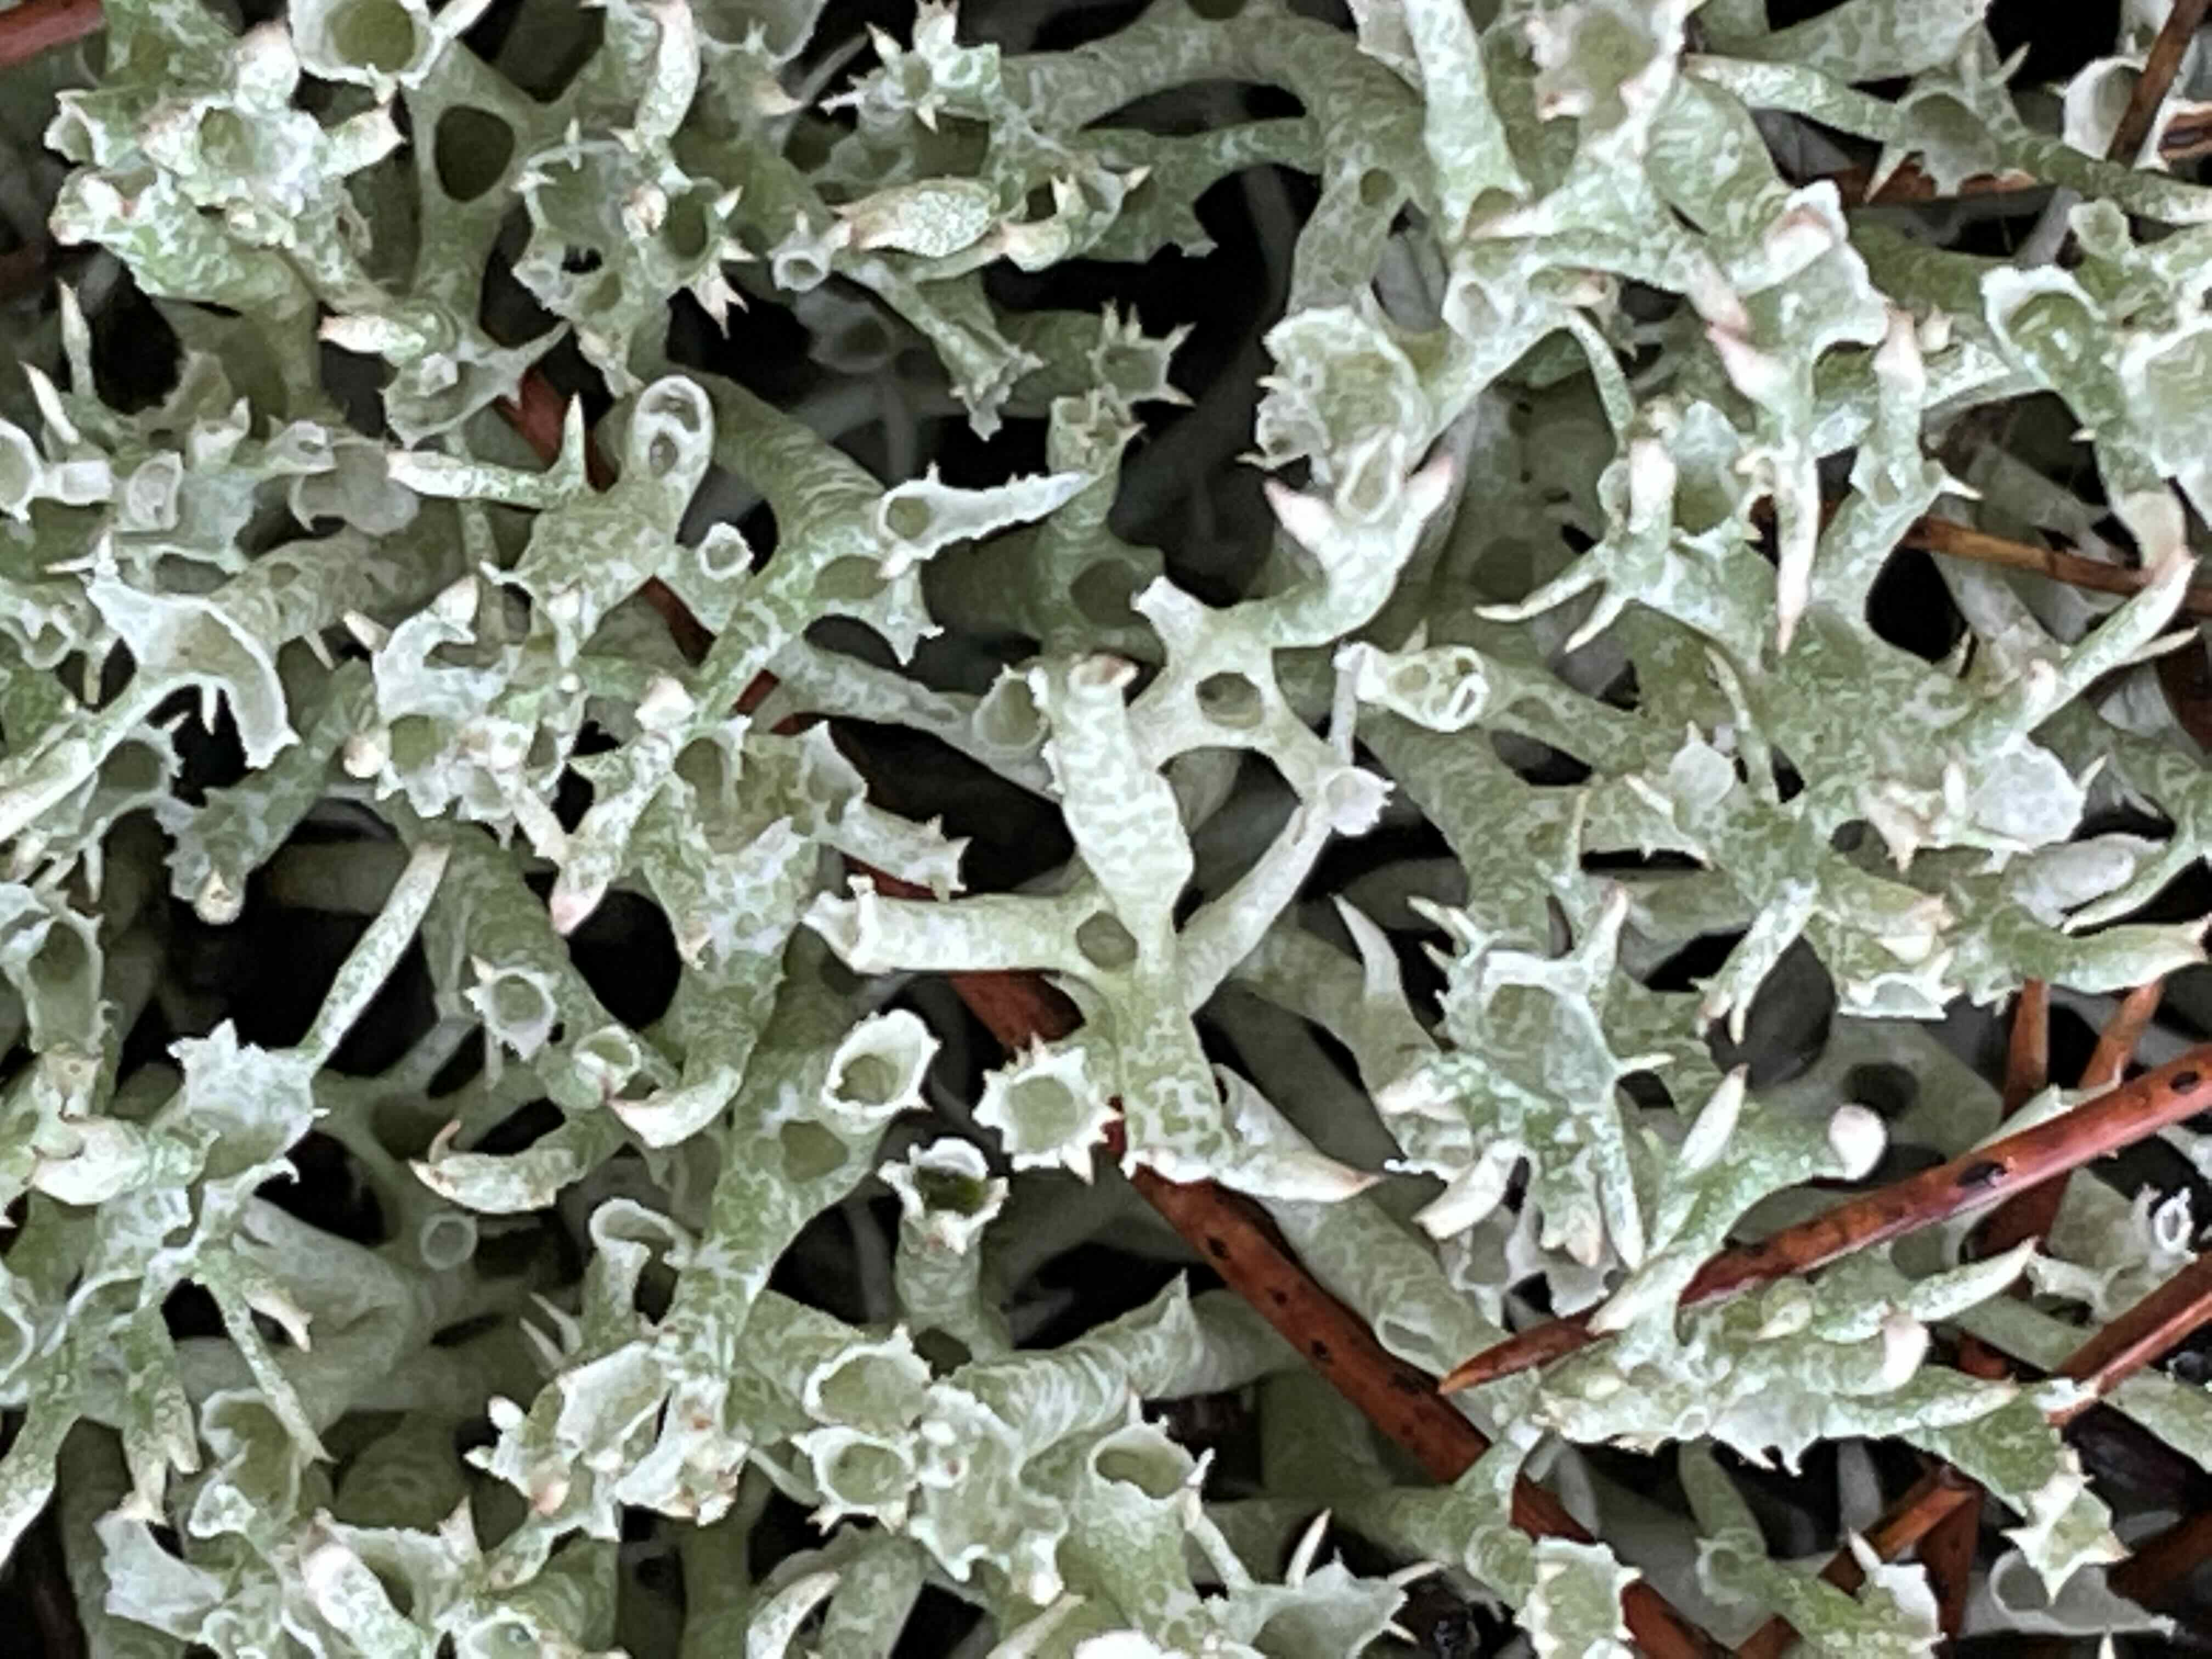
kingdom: Fungi
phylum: Ascomycota
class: Lecanoromycetes
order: Lecanorales
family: Cladoniaceae
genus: Cladonia
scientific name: Cladonia uncialis
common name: pigget bægerlav
